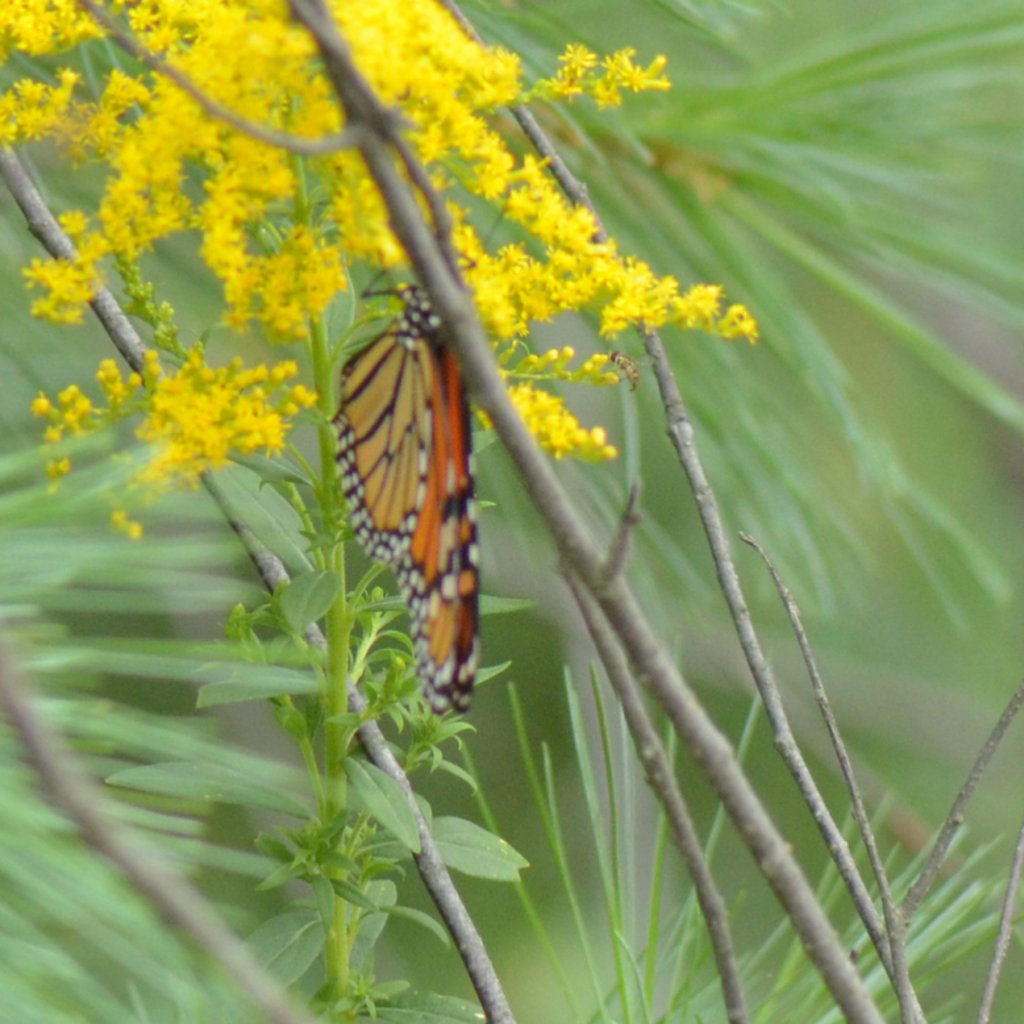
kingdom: Animalia
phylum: Arthropoda
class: Insecta
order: Lepidoptera
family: Nymphalidae
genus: Danaus
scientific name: Danaus plexippus
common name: Monarch
